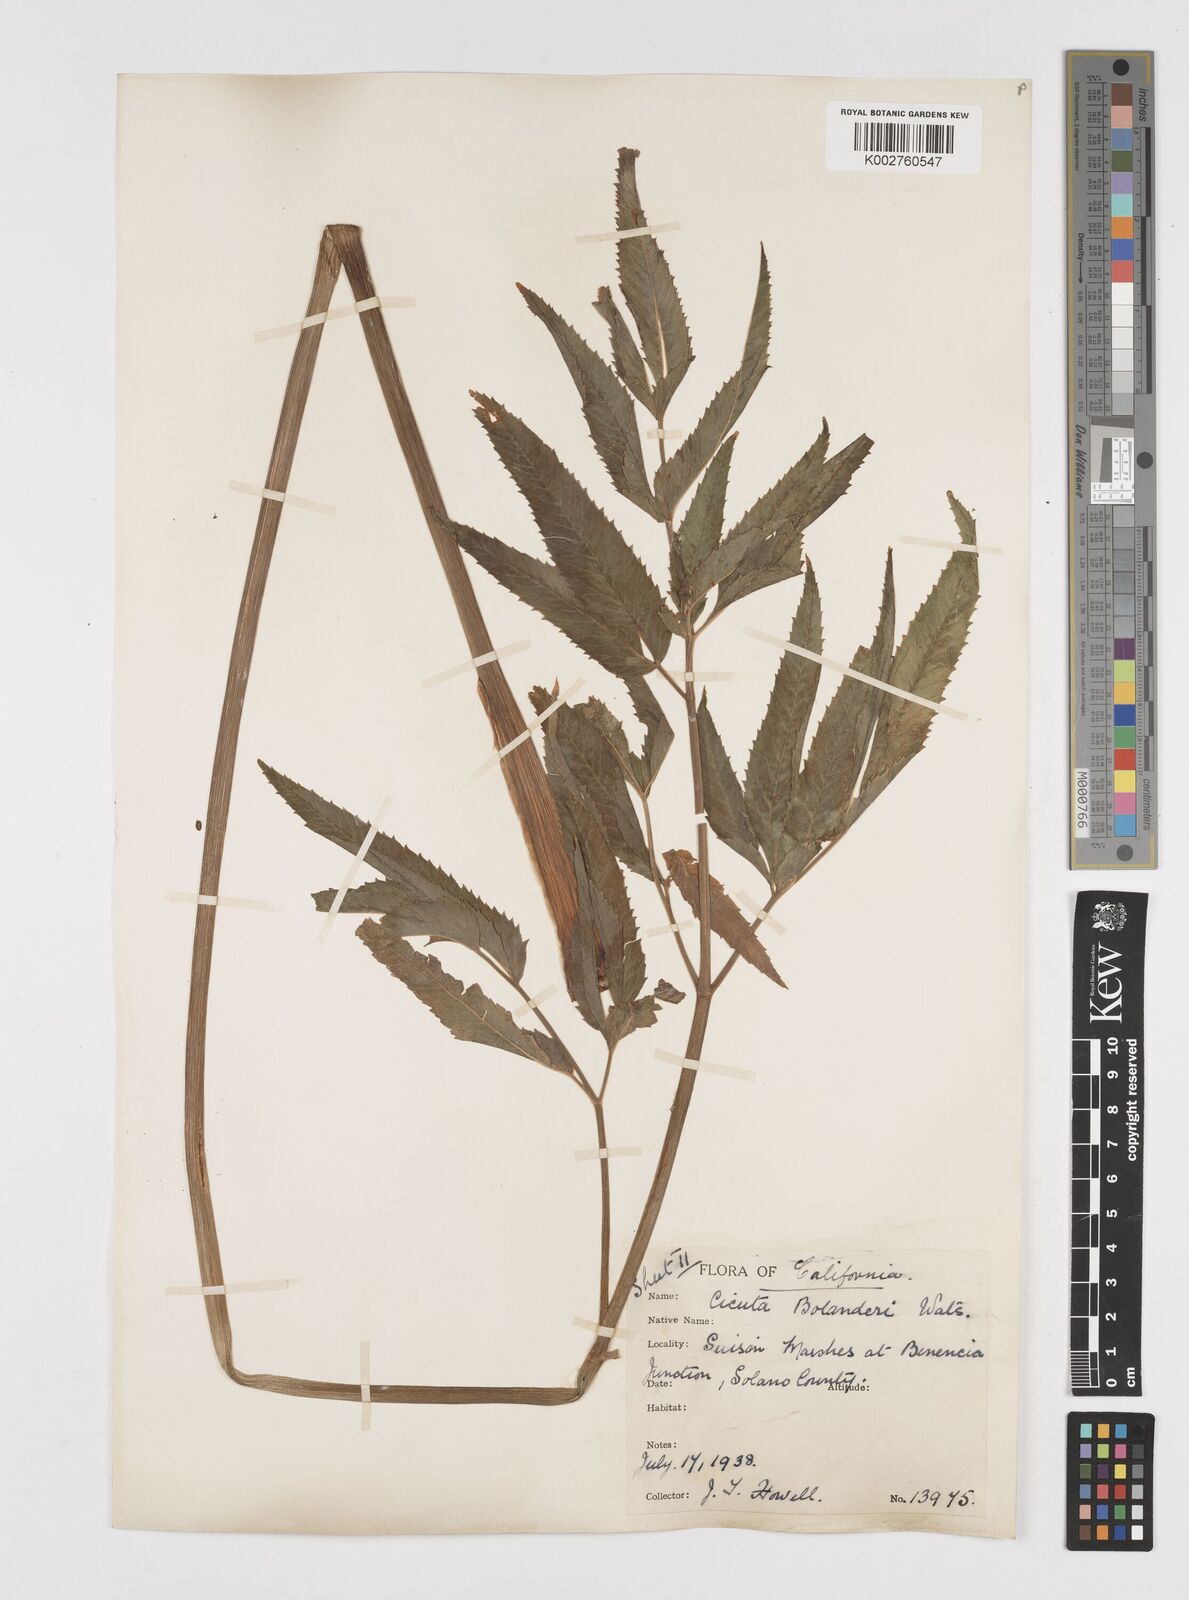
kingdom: Plantae
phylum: Tracheophyta
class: Magnoliopsida
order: Apiales
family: Apiaceae
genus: Cicuta
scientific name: Cicuta maculata
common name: Spotted cowbane
